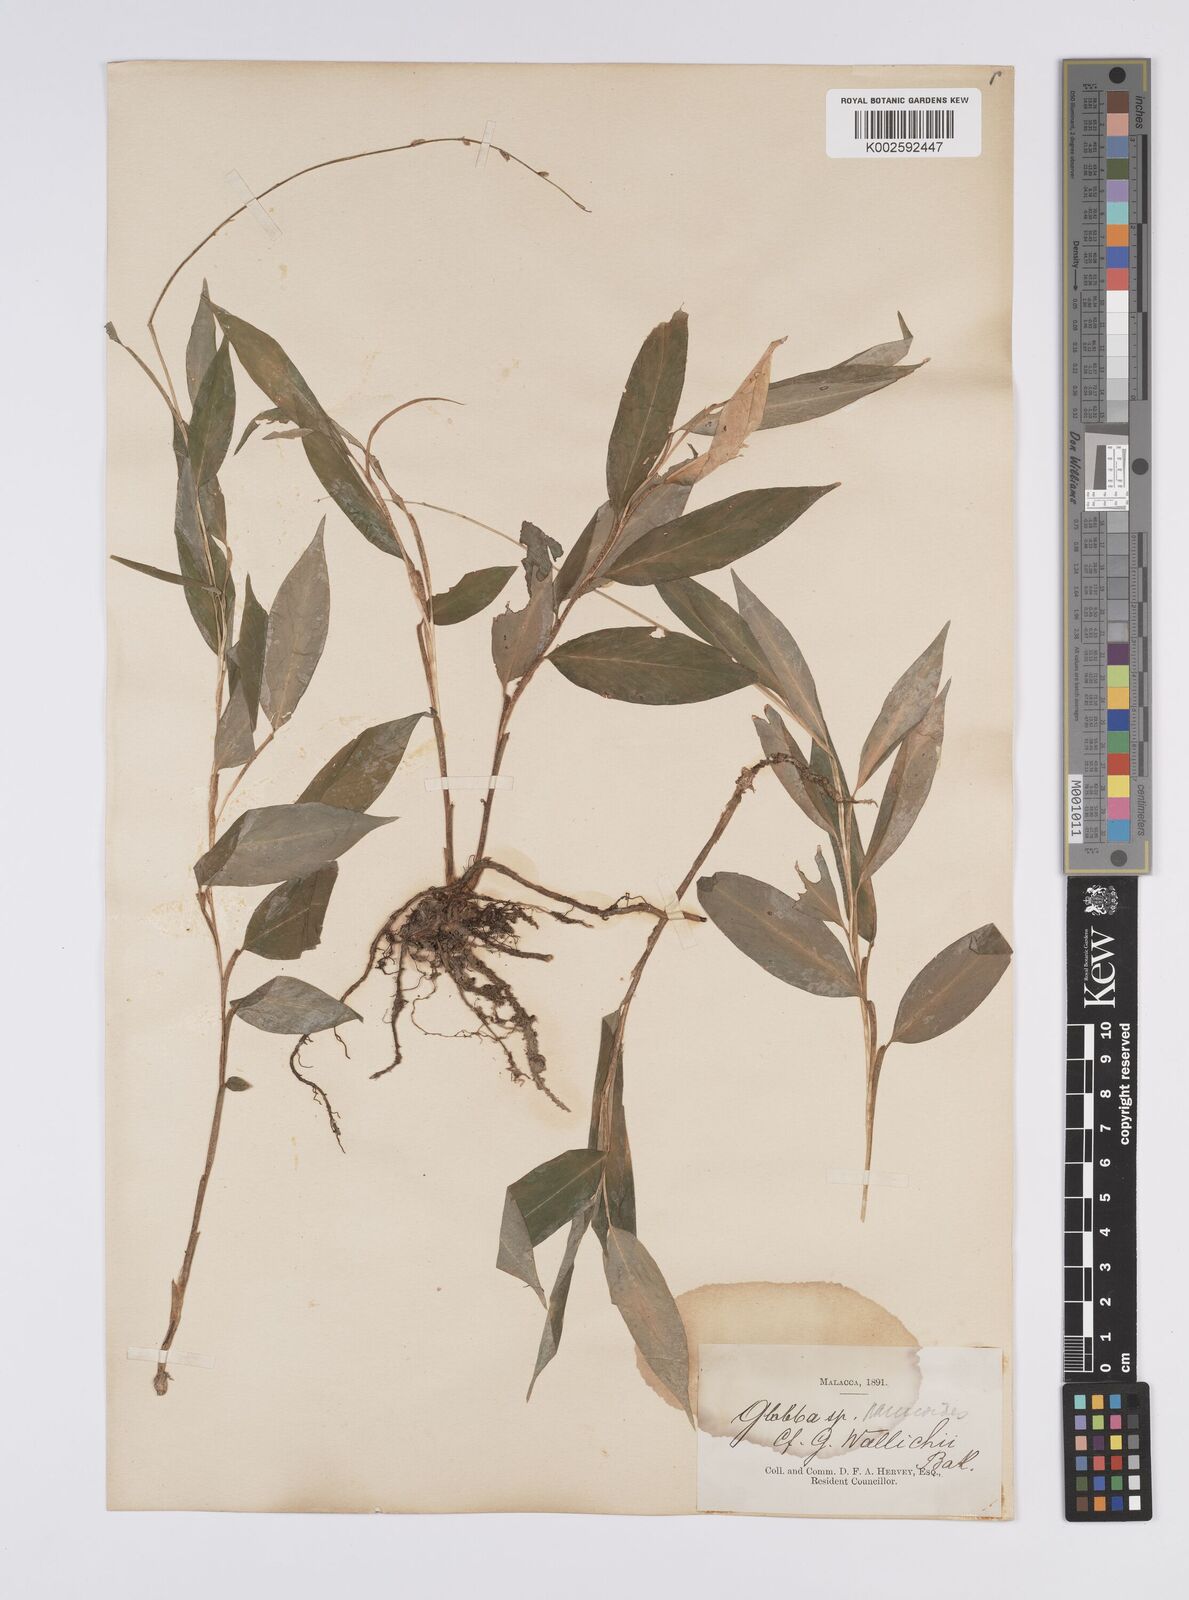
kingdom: Plantae
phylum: Tracheophyta
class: Liliopsida
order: Zingiberales
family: Zingiberaceae
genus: Globba
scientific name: Globba pendula
